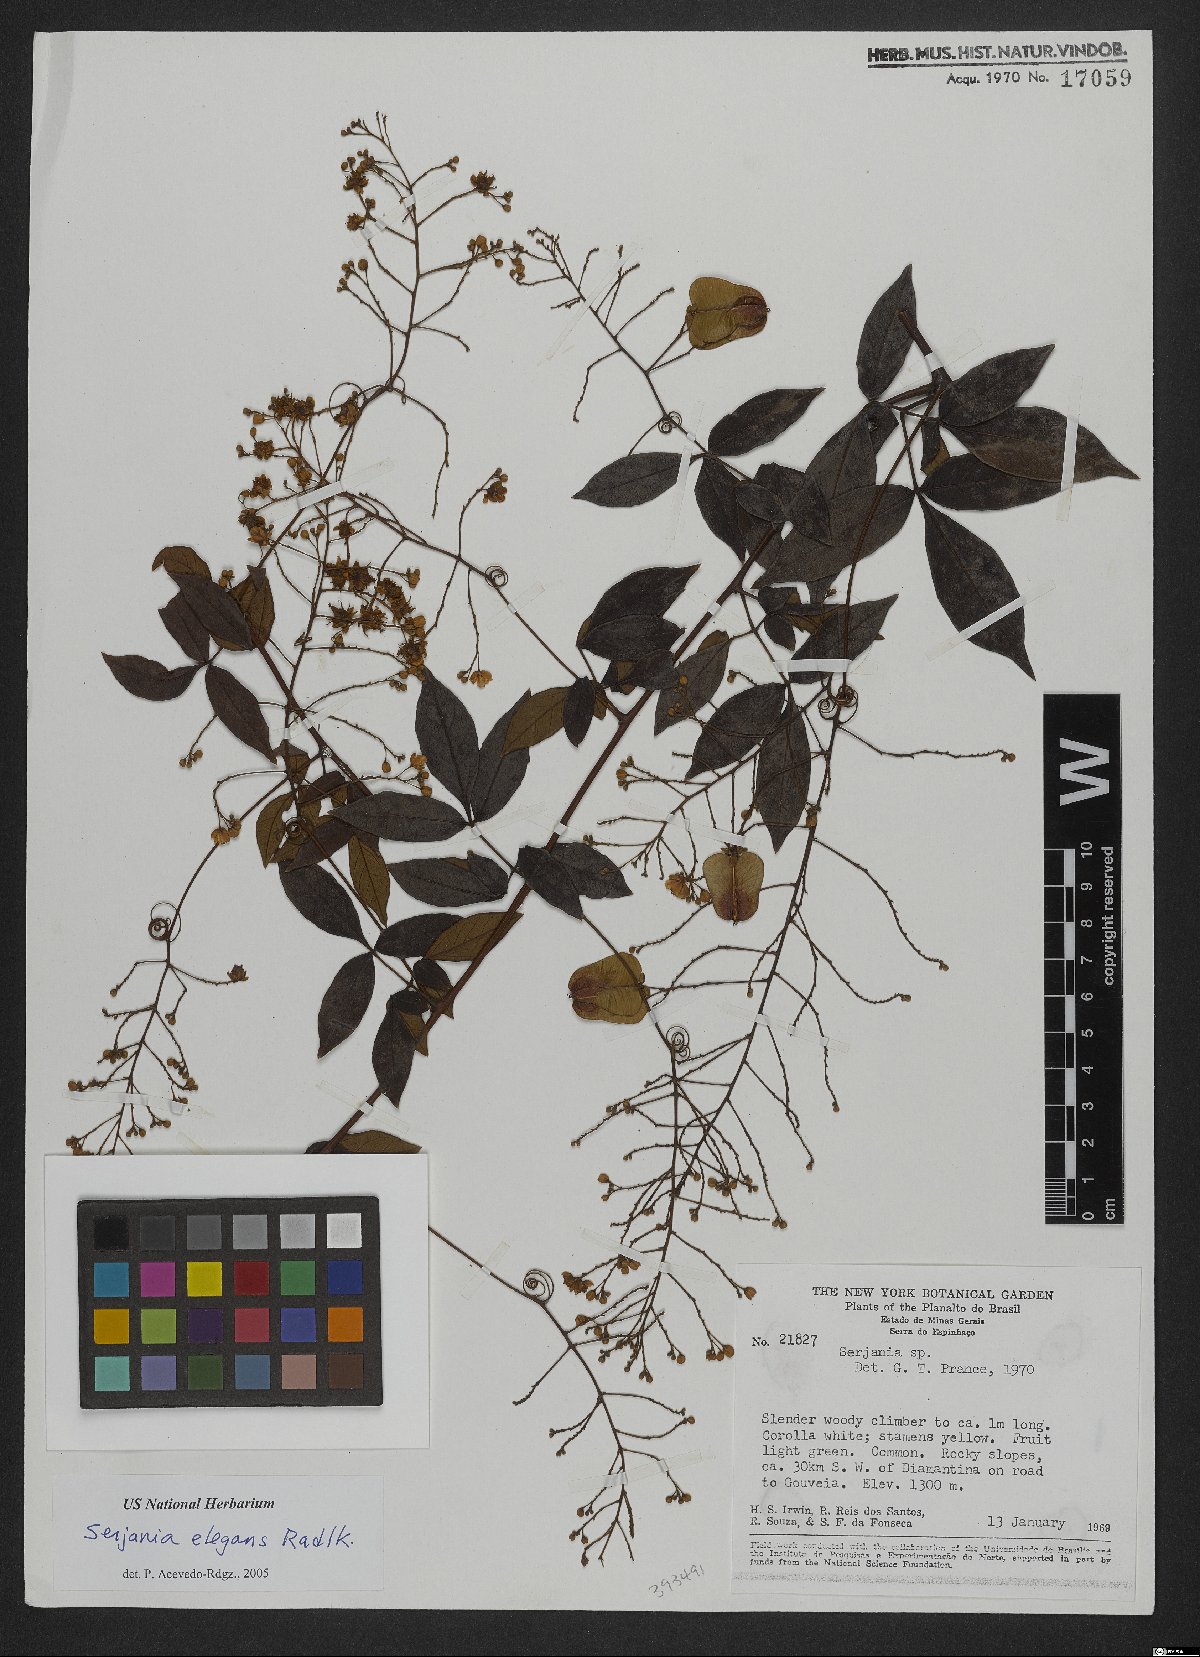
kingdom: Plantae
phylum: Tracheophyta
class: Magnoliopsida
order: Sapindales
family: Sapindaceae
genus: Serjania
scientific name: Serjania elegans
